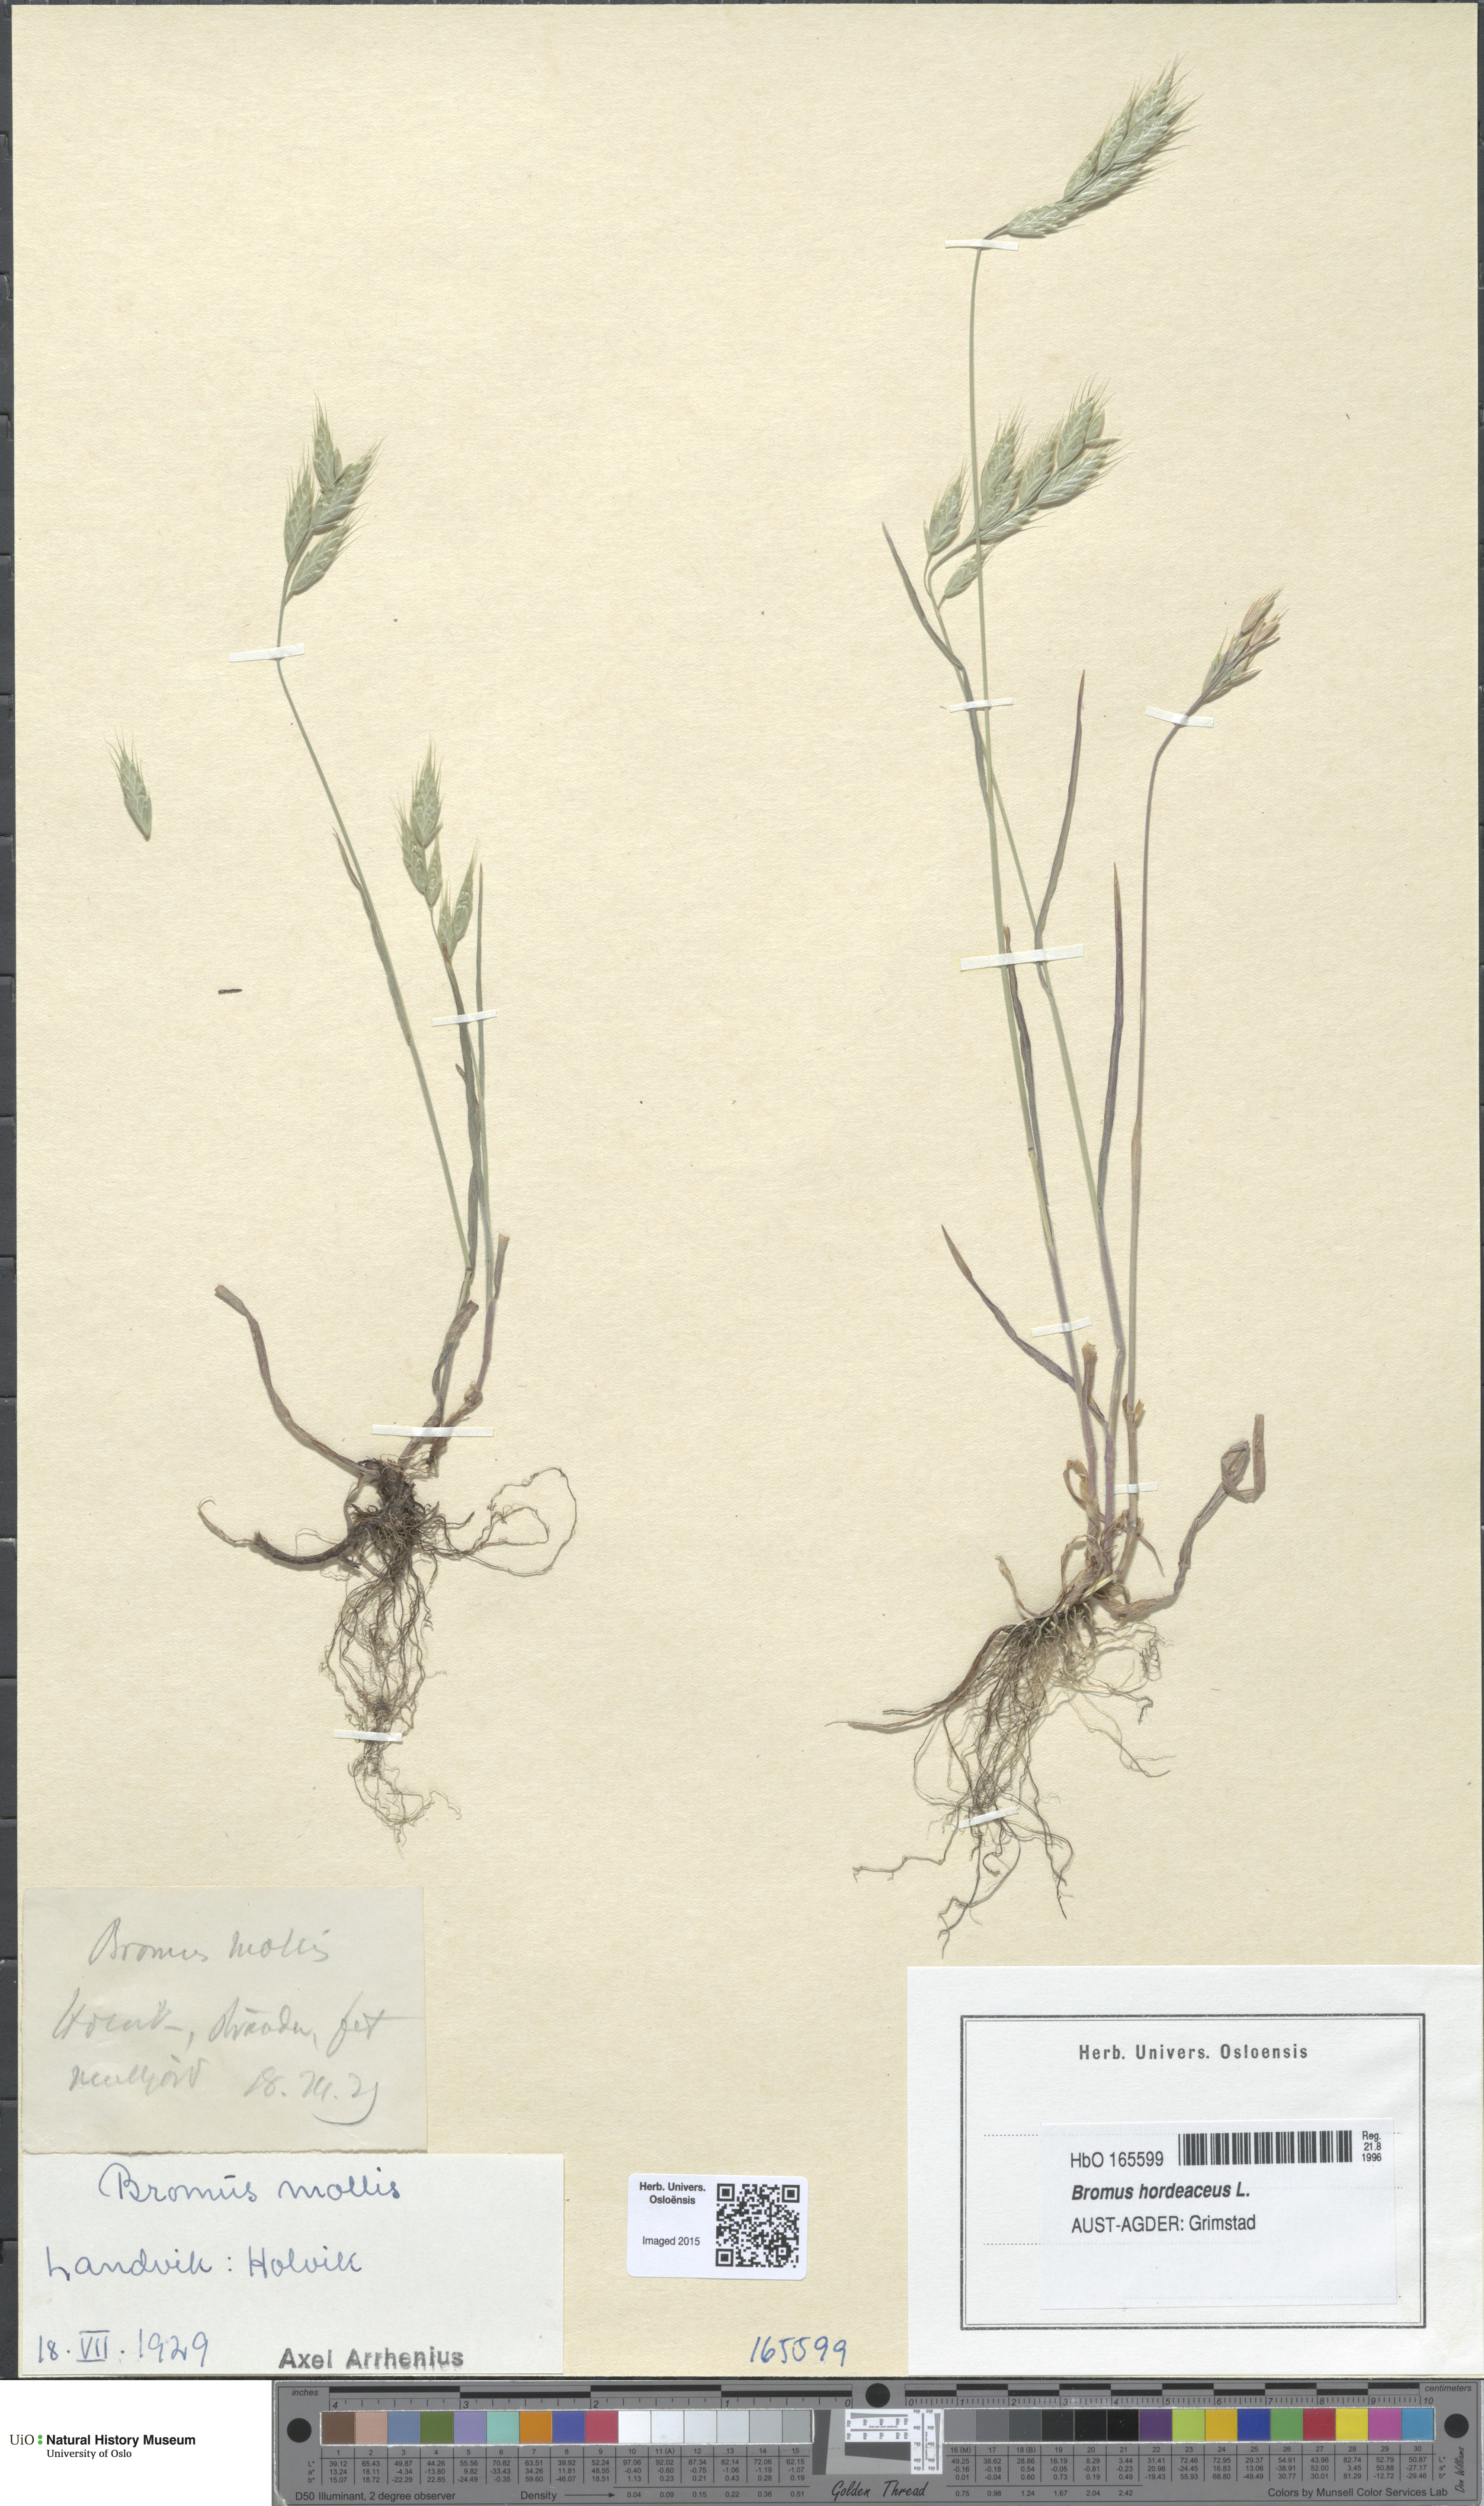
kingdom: Plantae
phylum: Tracheophyta
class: Liliopsida
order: Poales
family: Poaceae
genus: Bromus
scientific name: Bromus hordeaceus
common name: Soft brome
